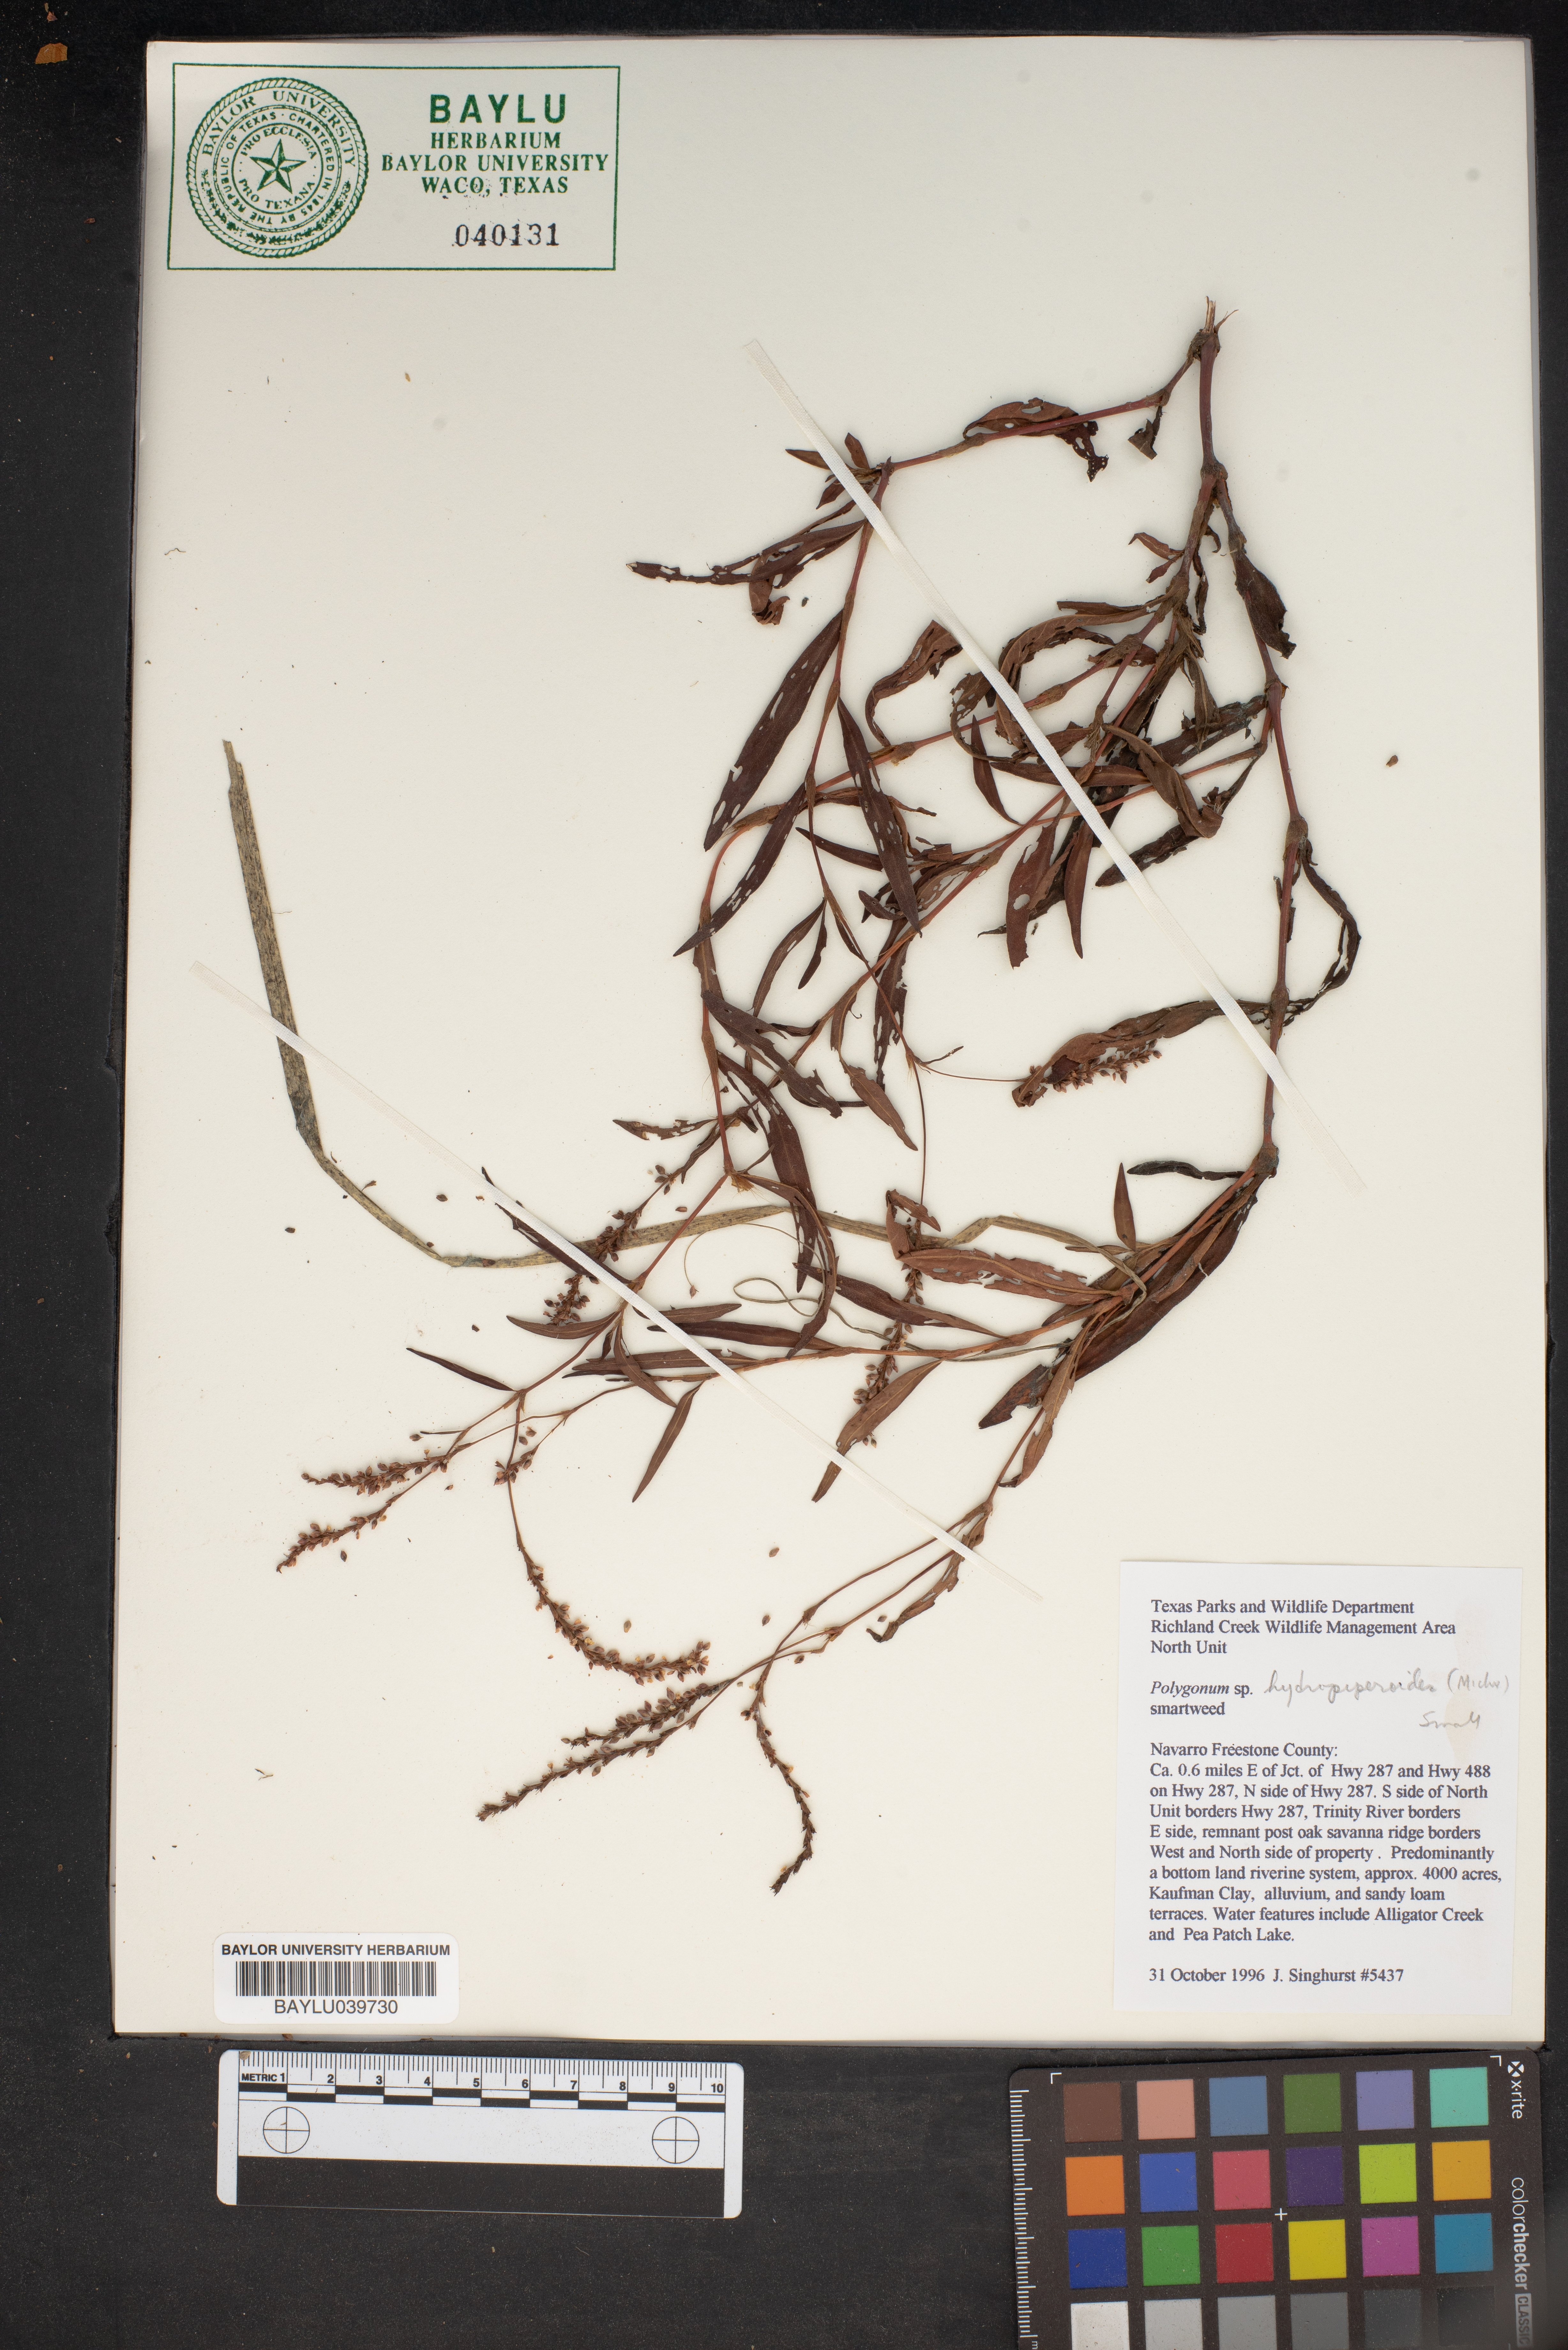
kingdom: Plantae
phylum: Tracheophyta
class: Magnoliopsida
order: Caryophyllales
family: Polygonaceae
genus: Persicaria
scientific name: Persicaria hydropiperoides
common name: Swamp smartweed
